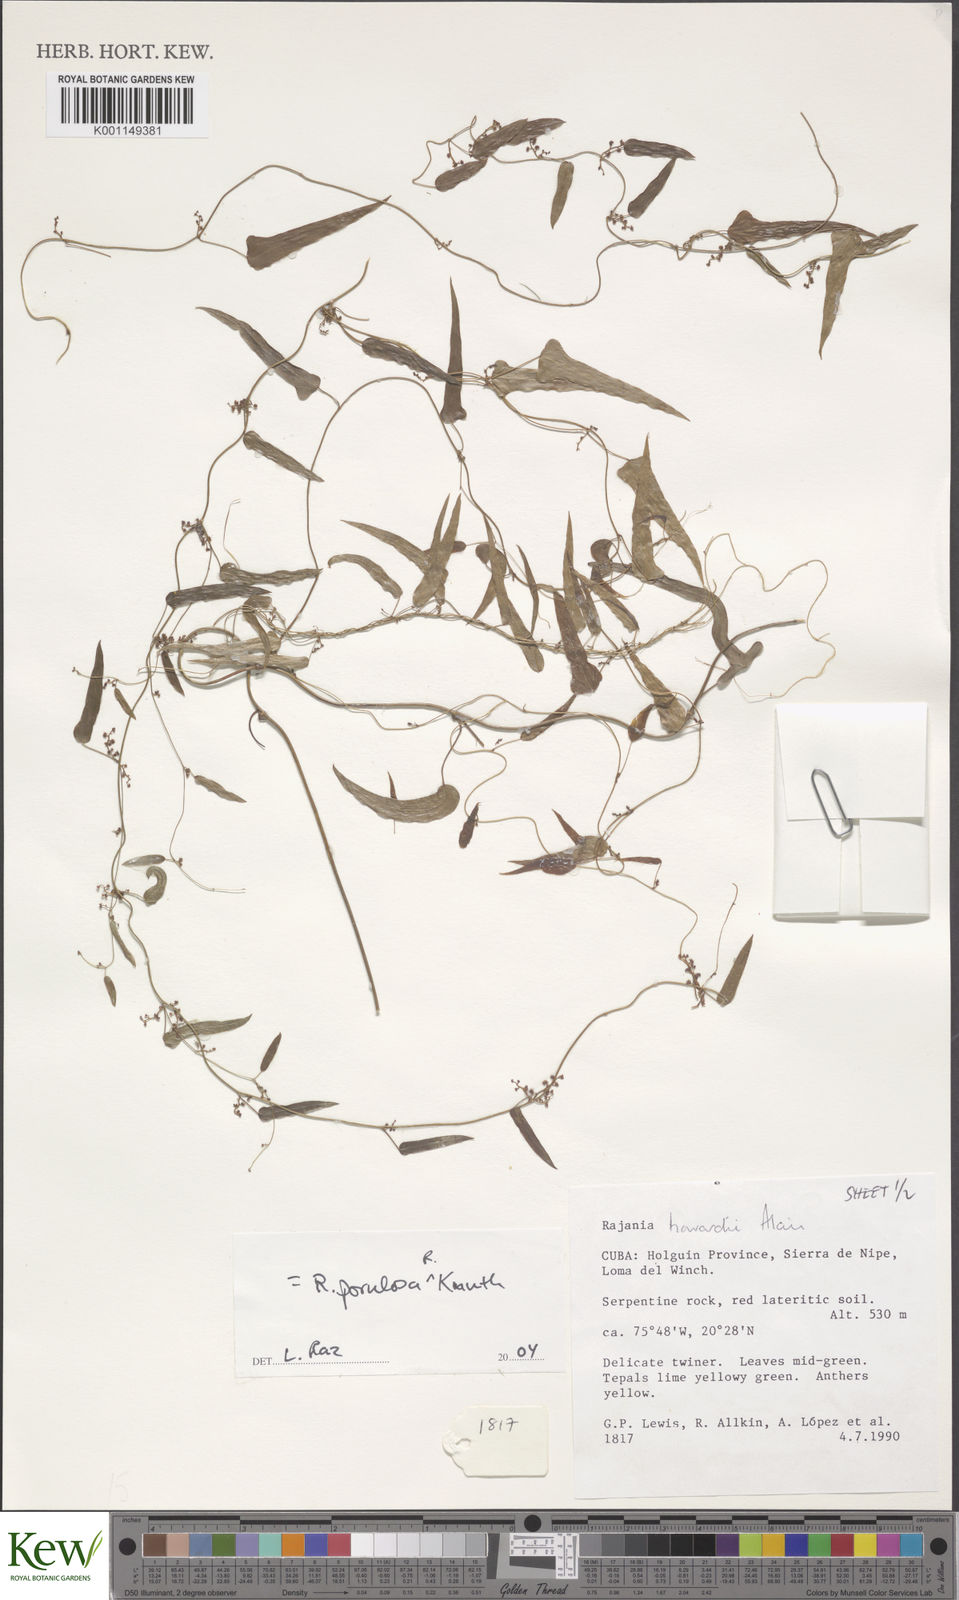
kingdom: Plantae
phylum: Tracheophyta
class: Liliopsida
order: Dioscoreales
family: Dioscoreaceae
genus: Dioscorea
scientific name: Dioscorea
